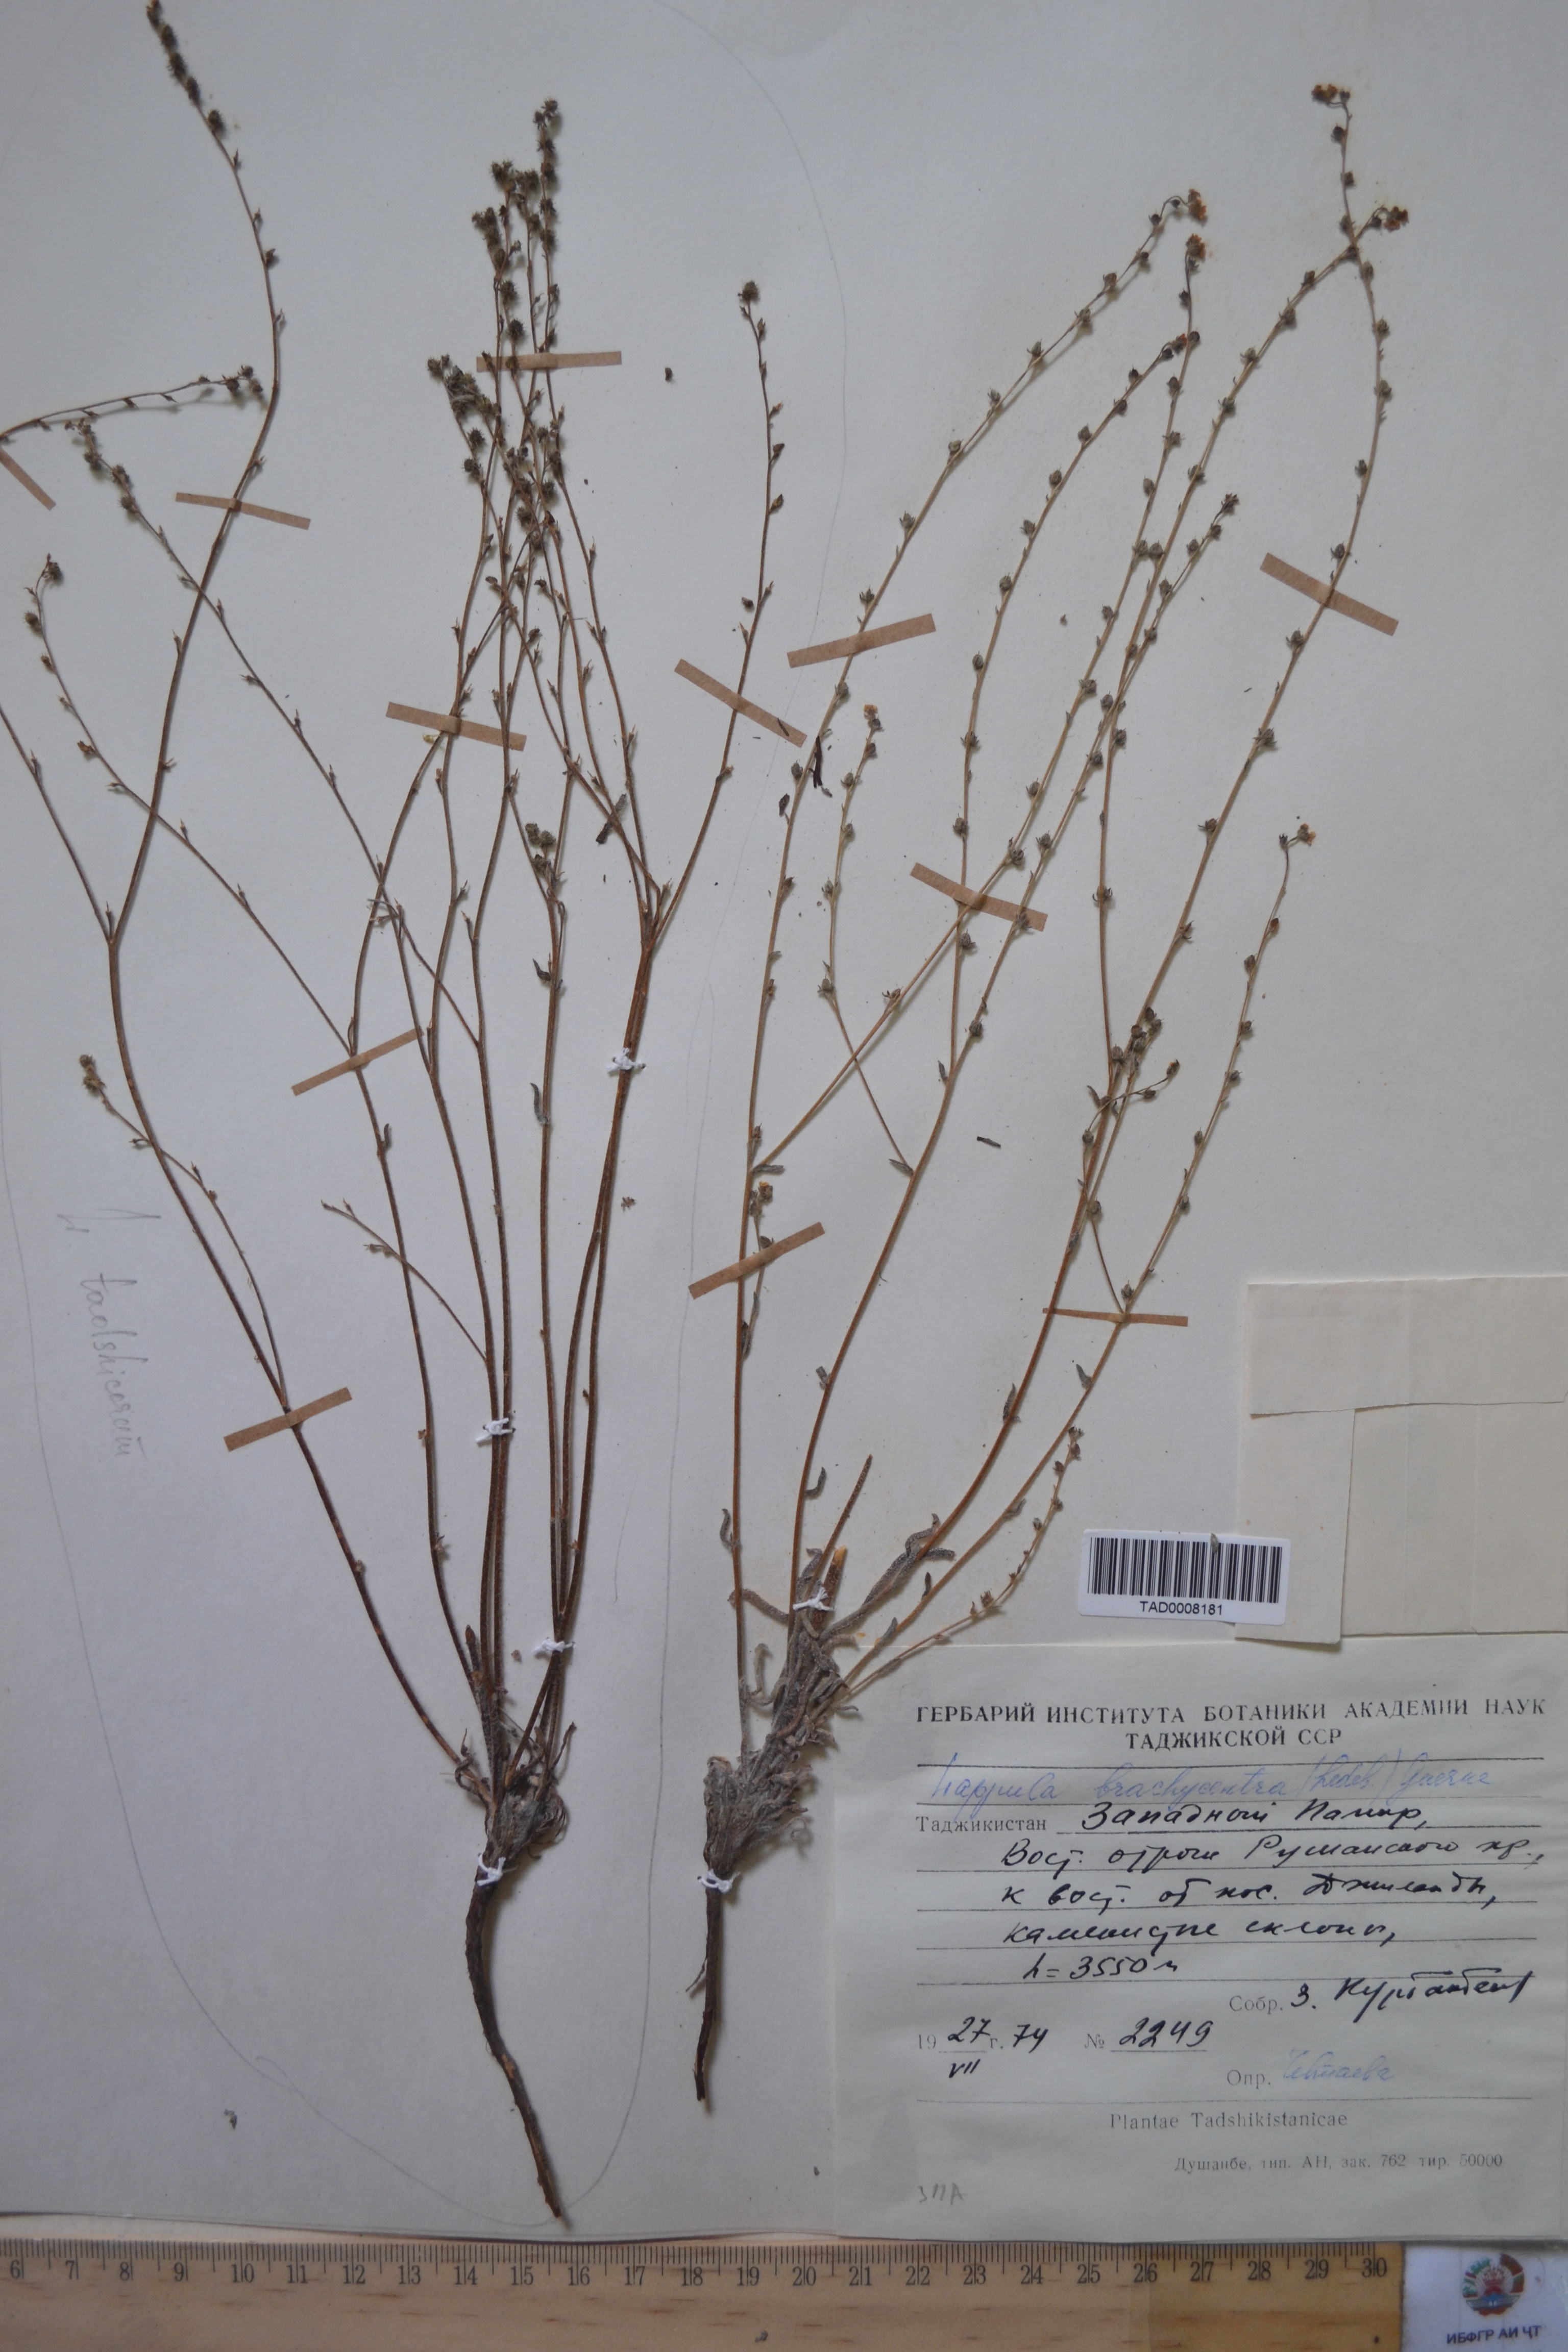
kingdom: Plantae
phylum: Tracheophyta
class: Magnoliopsida
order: Boraginales
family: Boraginaceae
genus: Lappula
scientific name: Lappula brachycentra
